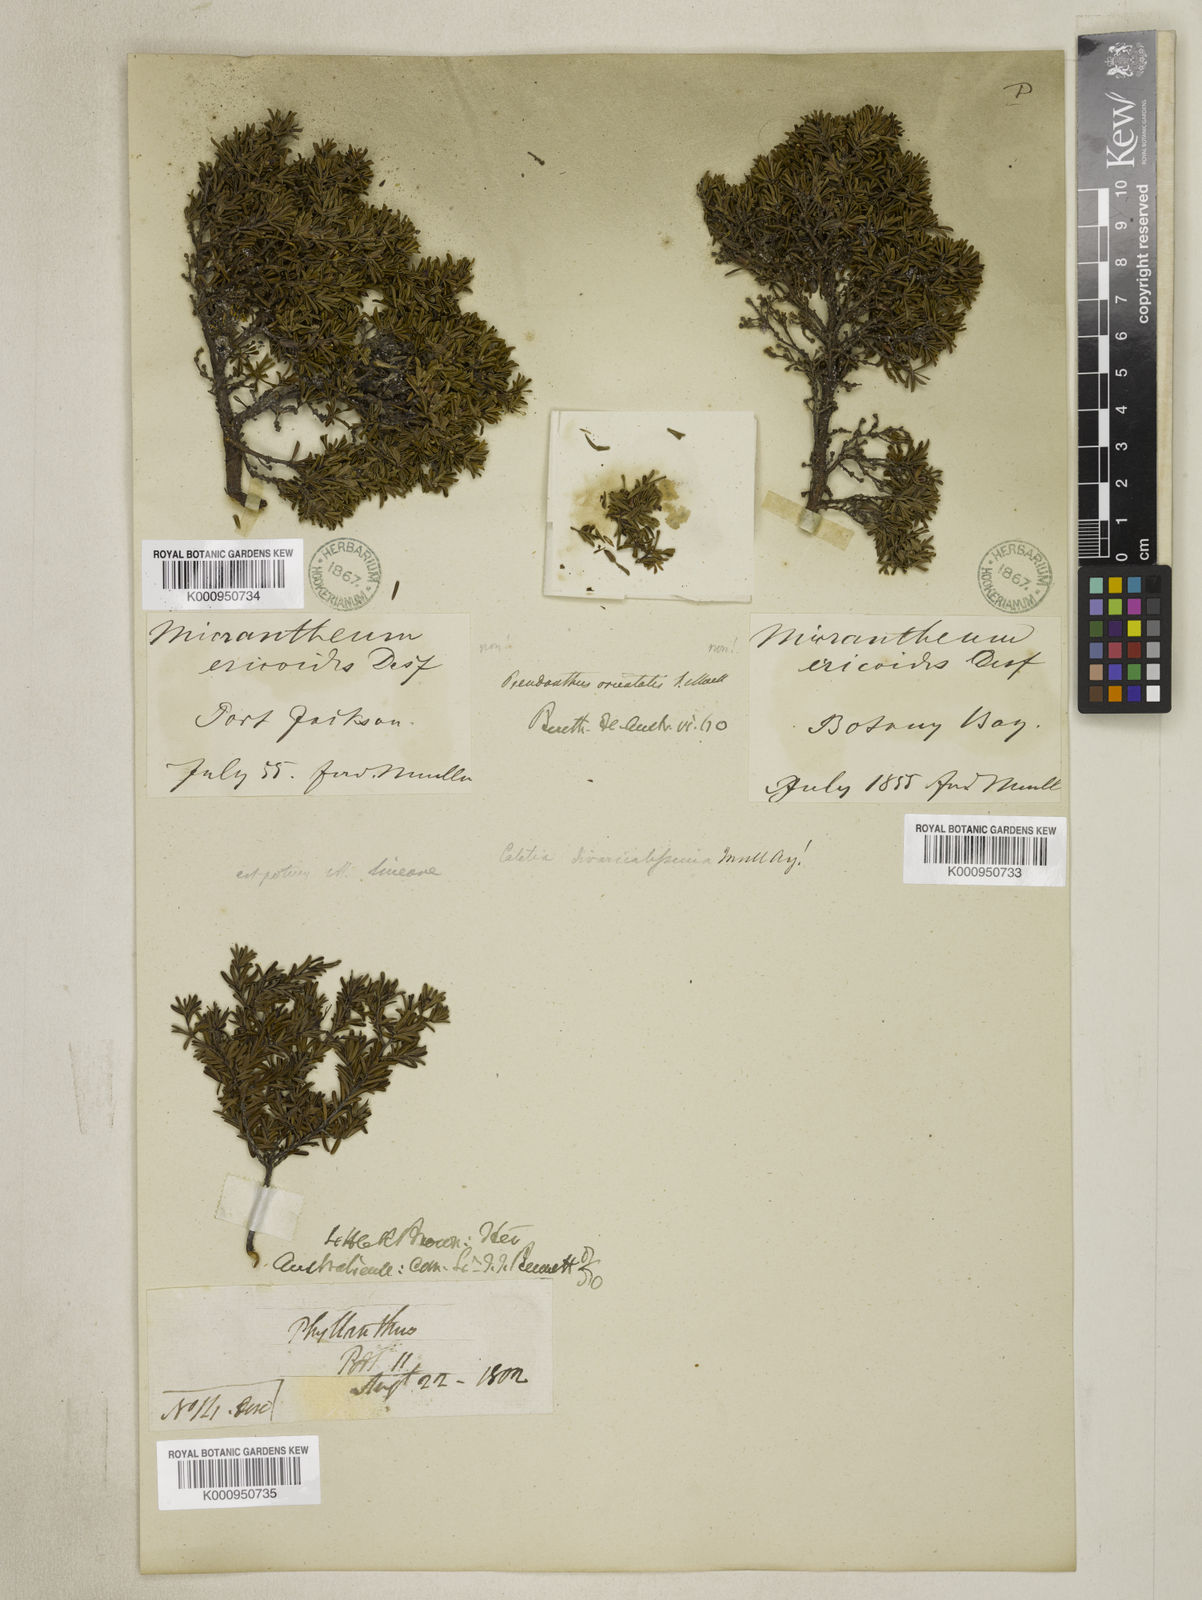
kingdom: Plantae
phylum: Tracheophyta
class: Magnoliopsida
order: Malpighiales
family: Picrodendraceae
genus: Pseudanthus
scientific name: Pseudanthus orientalis
